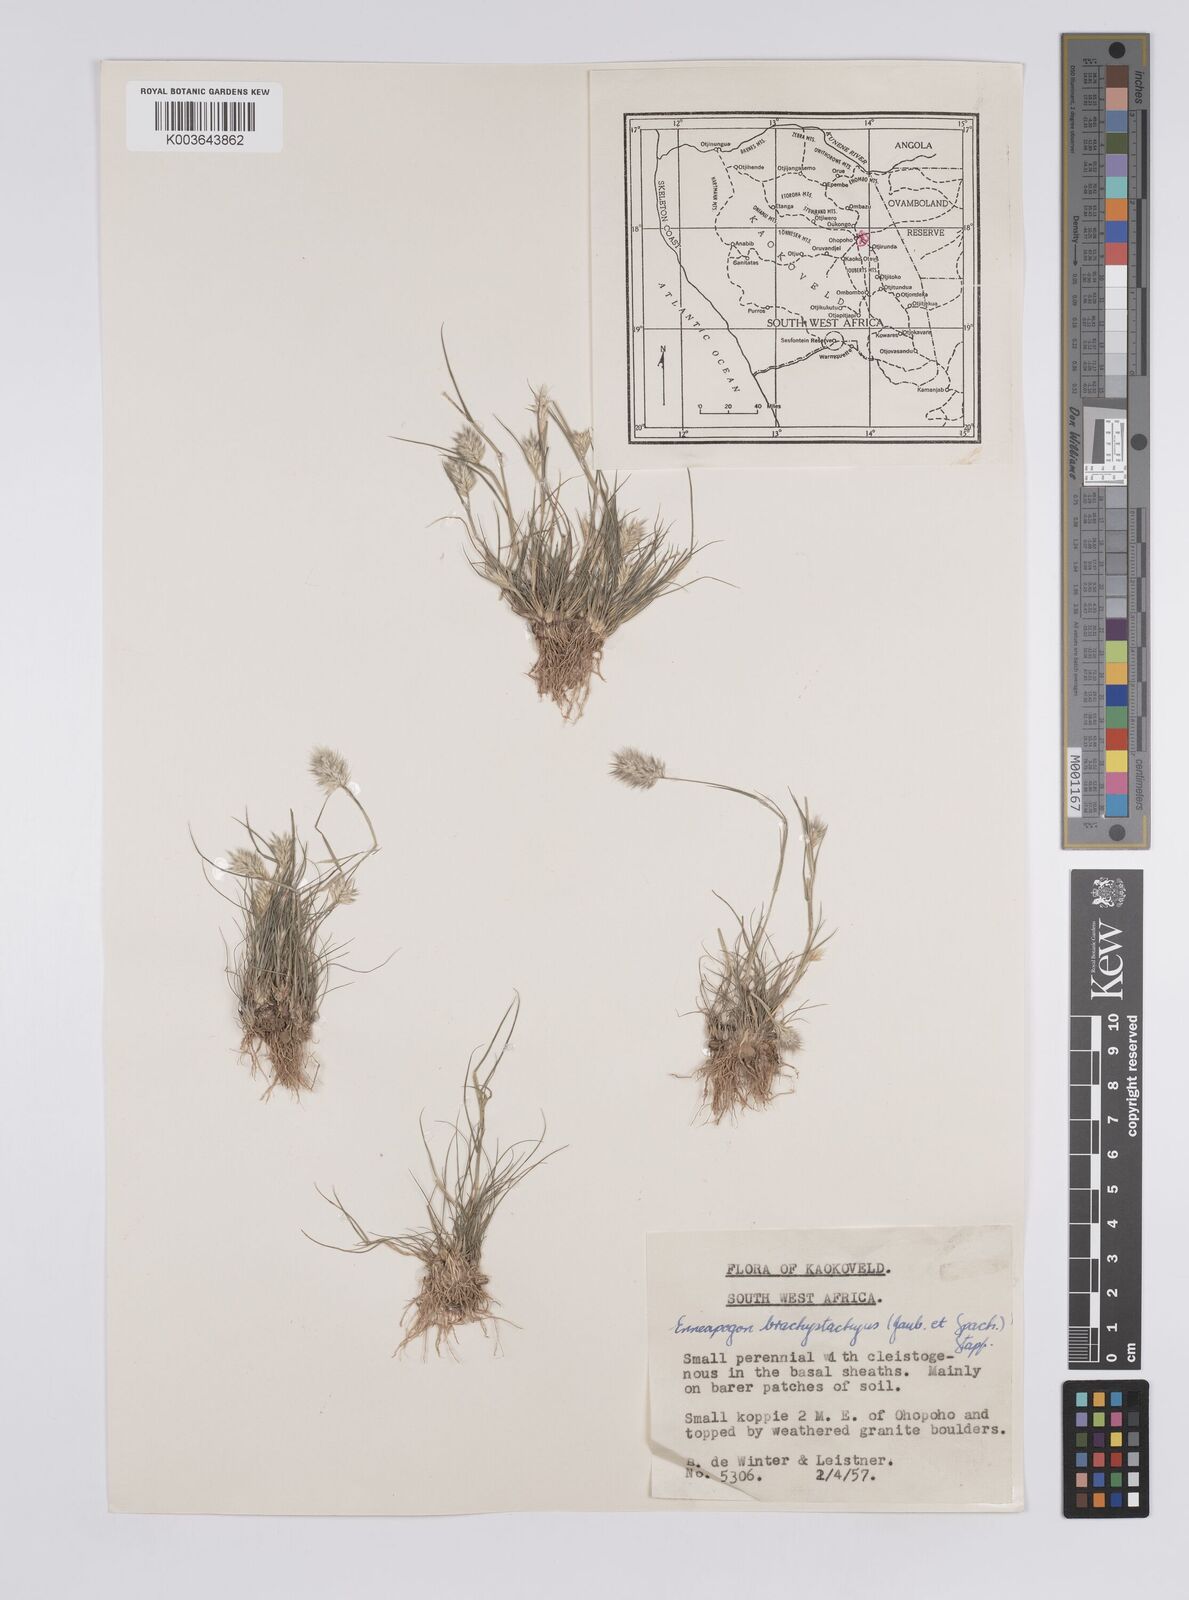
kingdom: Plantae
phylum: Tracheophyta
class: Liliopsida
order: Poales
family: Poaceae
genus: Enneapogon
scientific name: Enneapogon desvauxii
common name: Feather pappus grass
